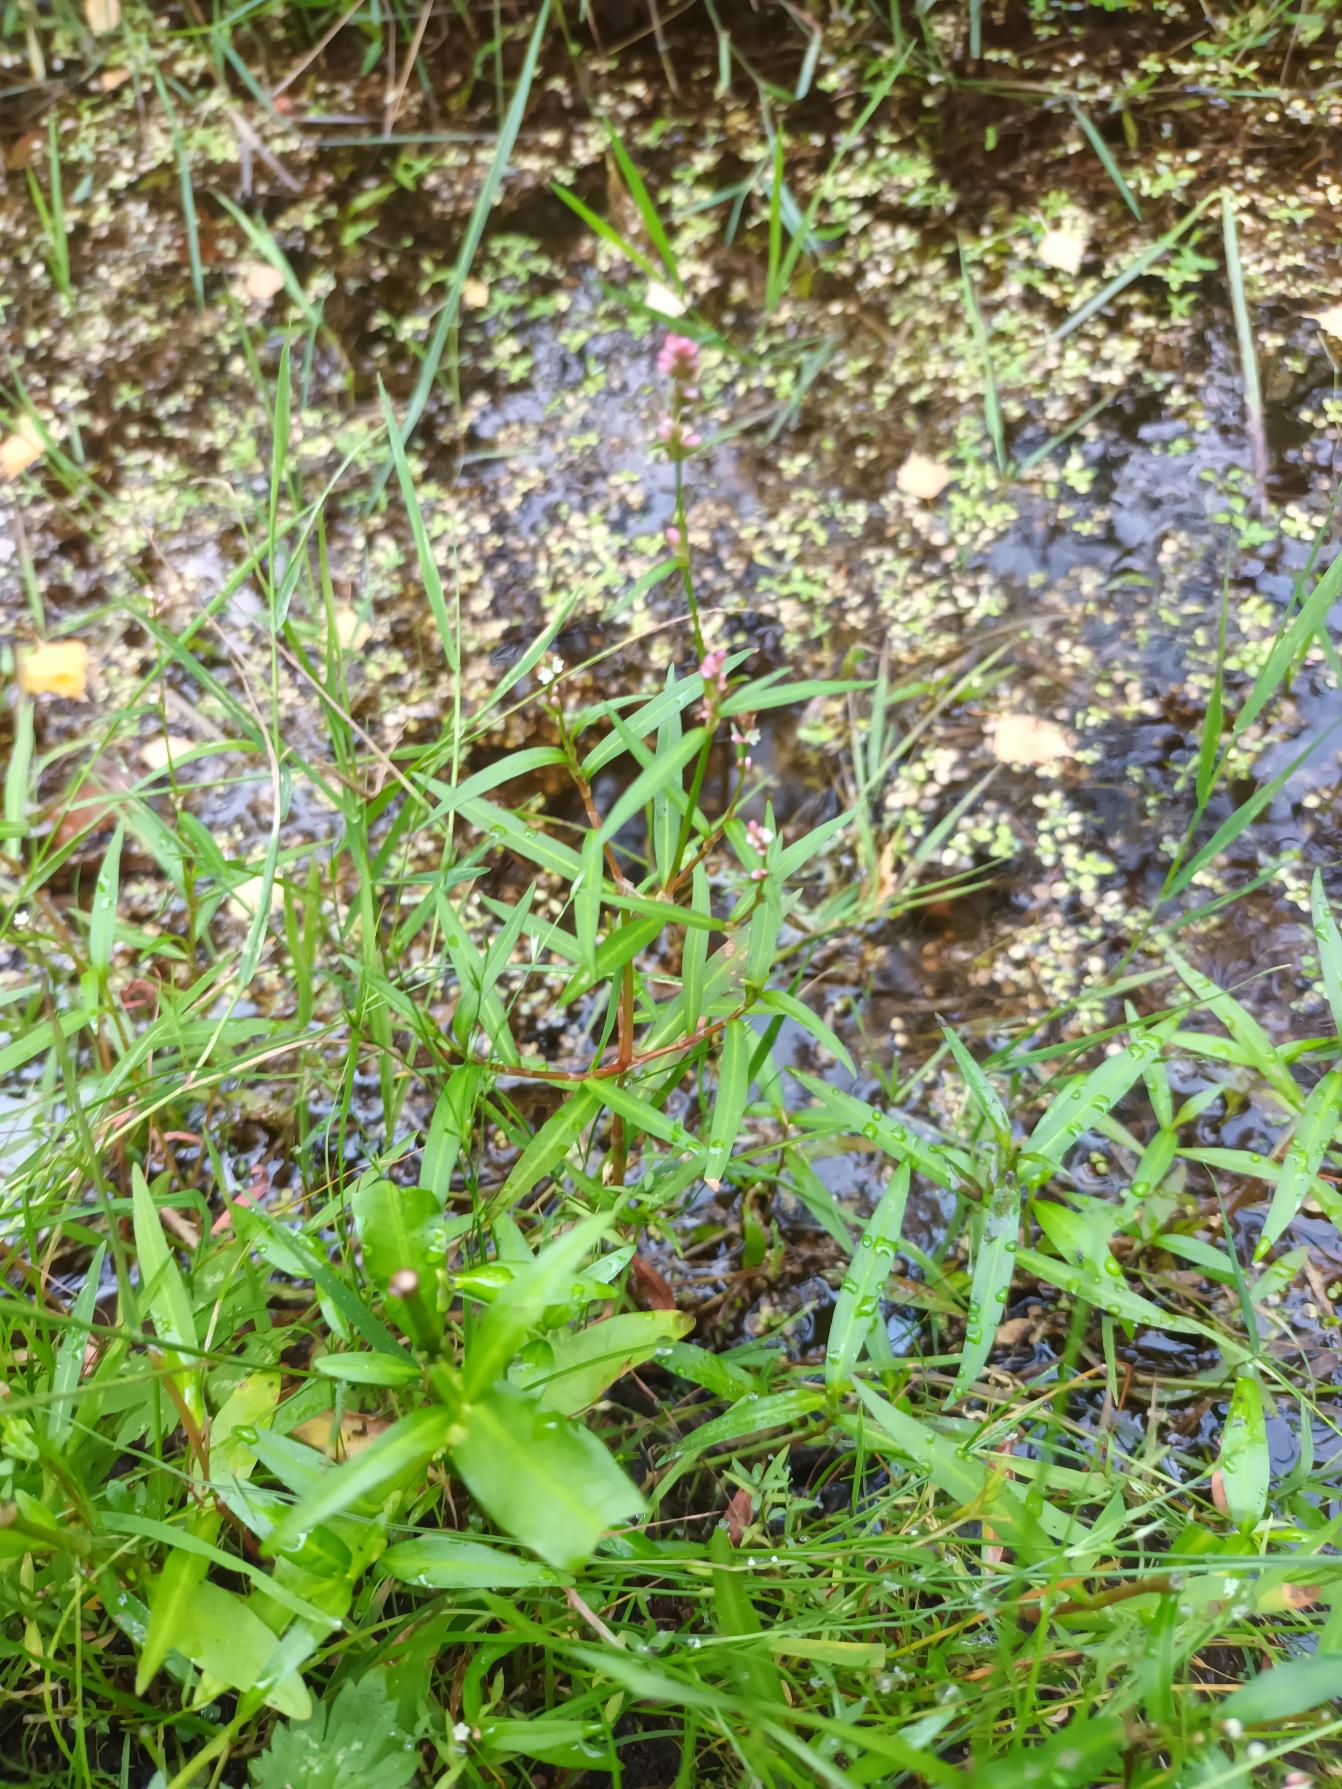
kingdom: Plantae
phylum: Tracheophyta
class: Magnoliopsida
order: Caryophyllales
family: Polygonaceae
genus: Persicaria
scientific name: Persicaria minor
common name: Liden pileurt
